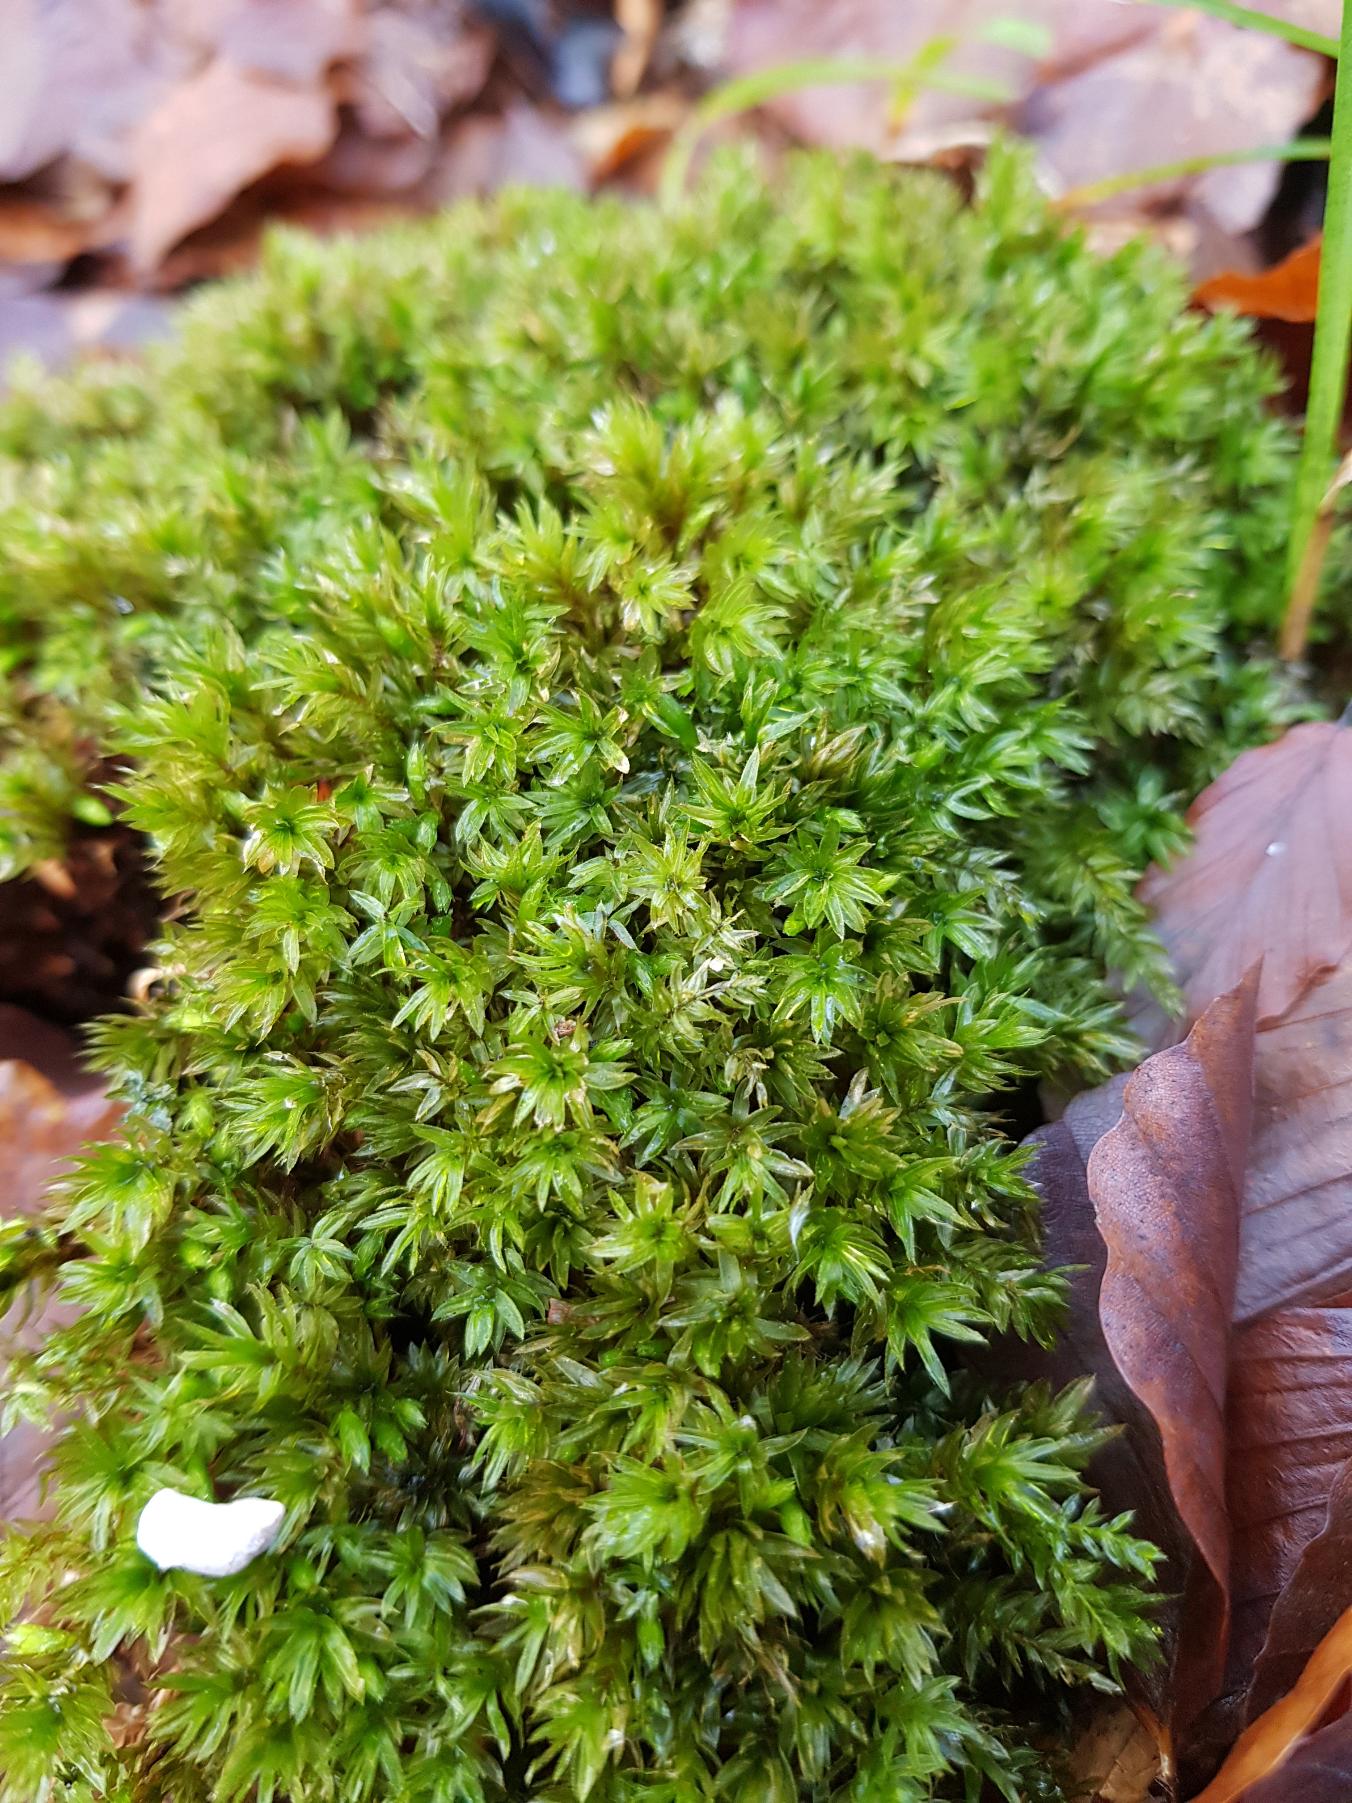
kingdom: Plantae
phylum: Bryophyta
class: Bryopsida
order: Bryales
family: Mniaceae
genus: Mnium
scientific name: Mnium hornum
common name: Brunfiltet stjernemos
